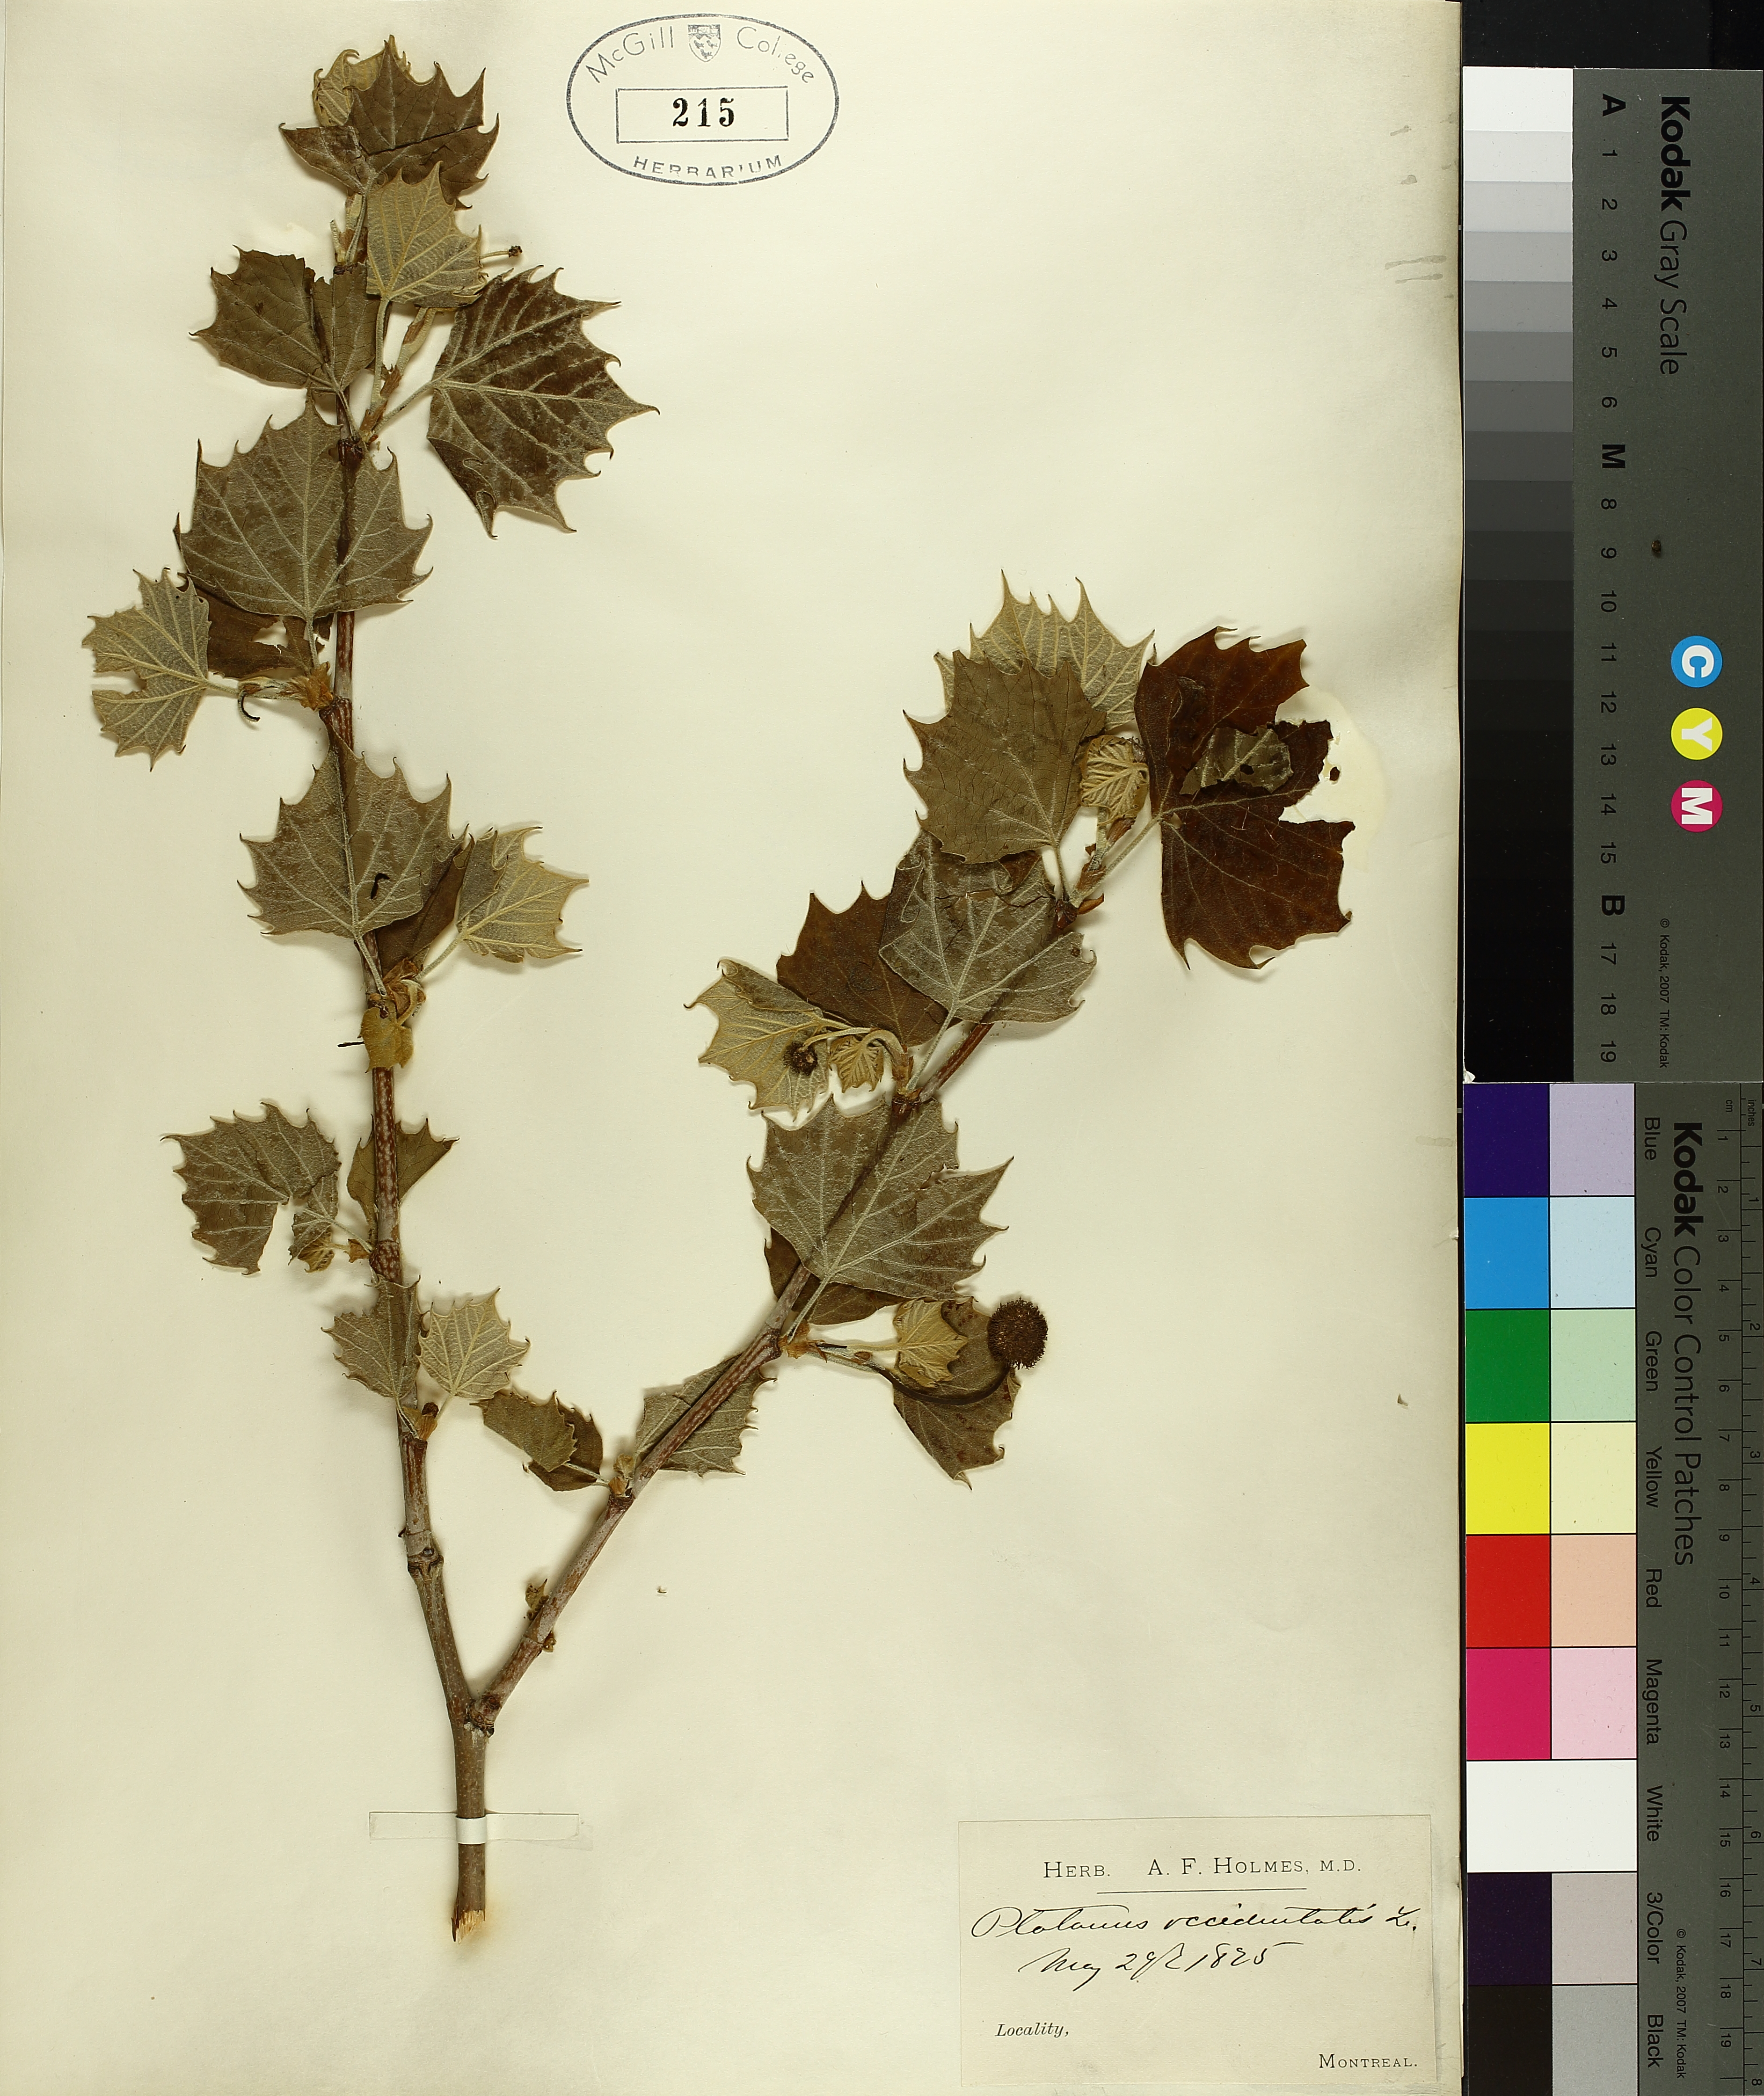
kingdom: Plantae
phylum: Tracheophyta
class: Magnoliopsida
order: Proteales
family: Platanaceae
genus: Platanus
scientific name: Platanus occidentalis
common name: American sycamore
